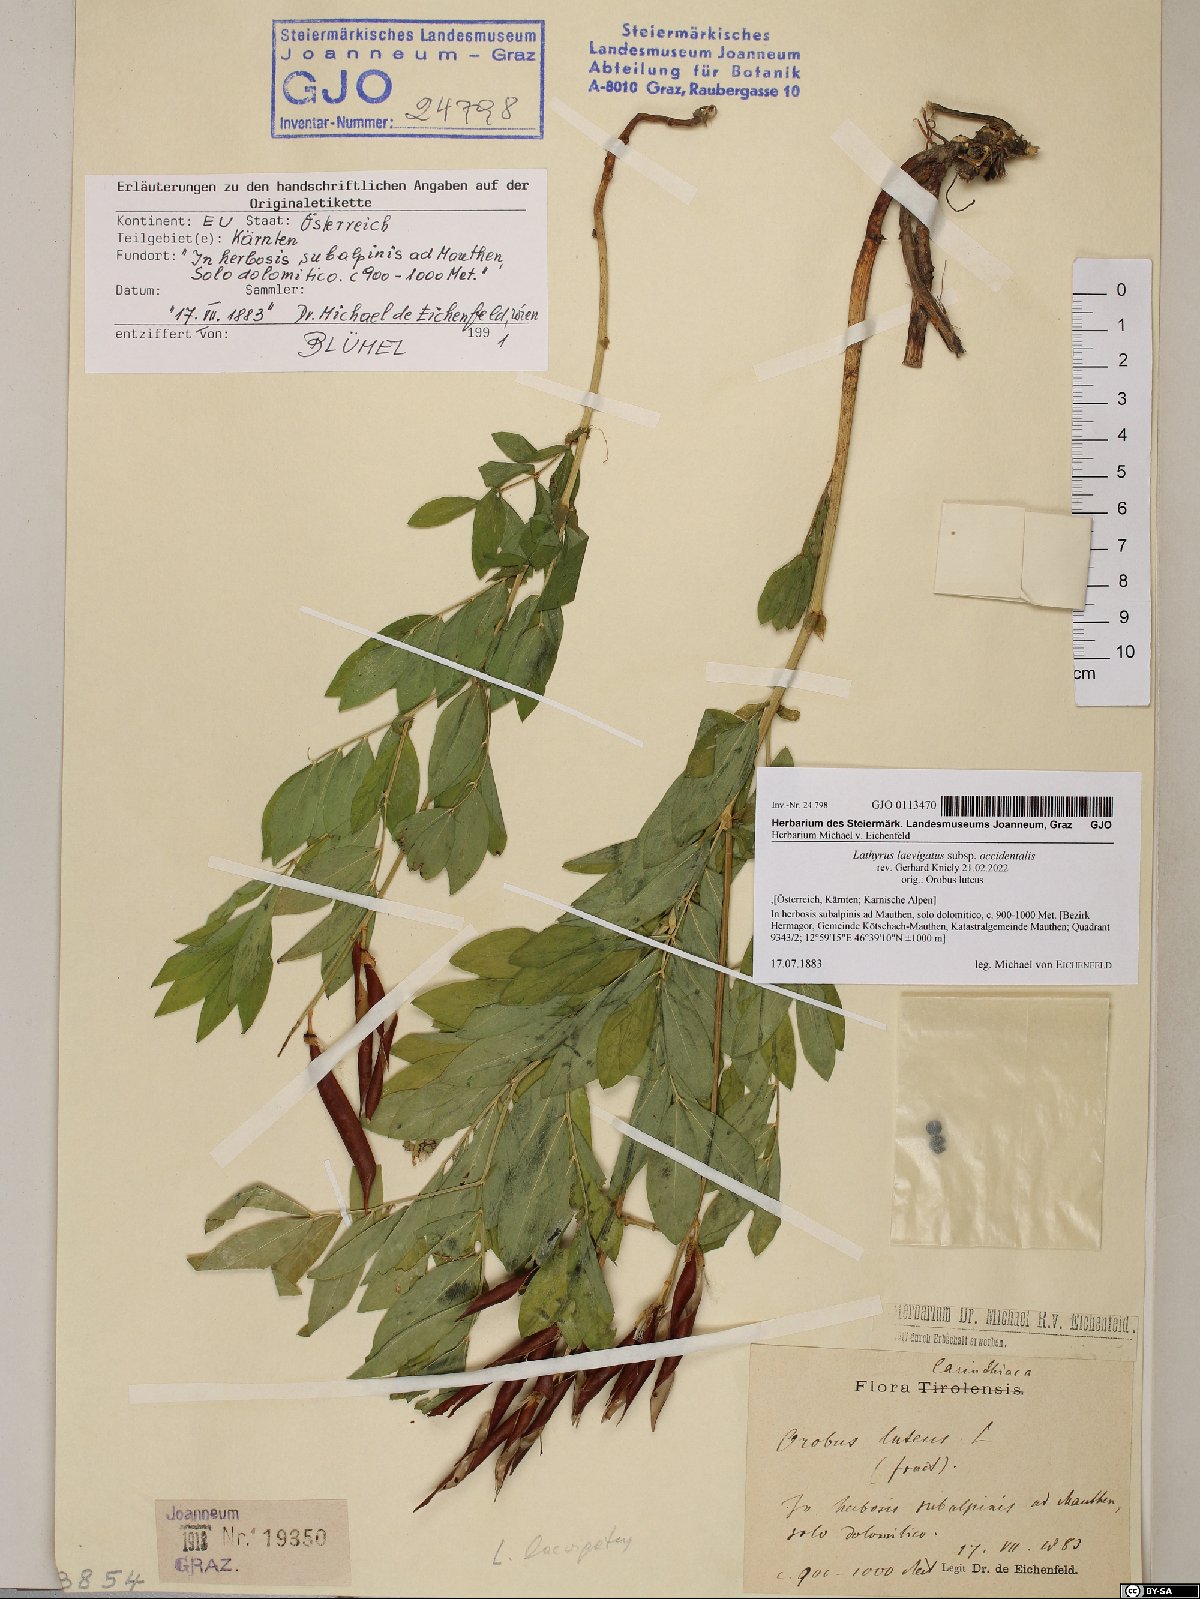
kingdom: Plantae
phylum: Tracheophyta
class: Magnoliopsida
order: Fabales
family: Fabaceae
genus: Lathyrus
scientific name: Lathyrus laevigatus
